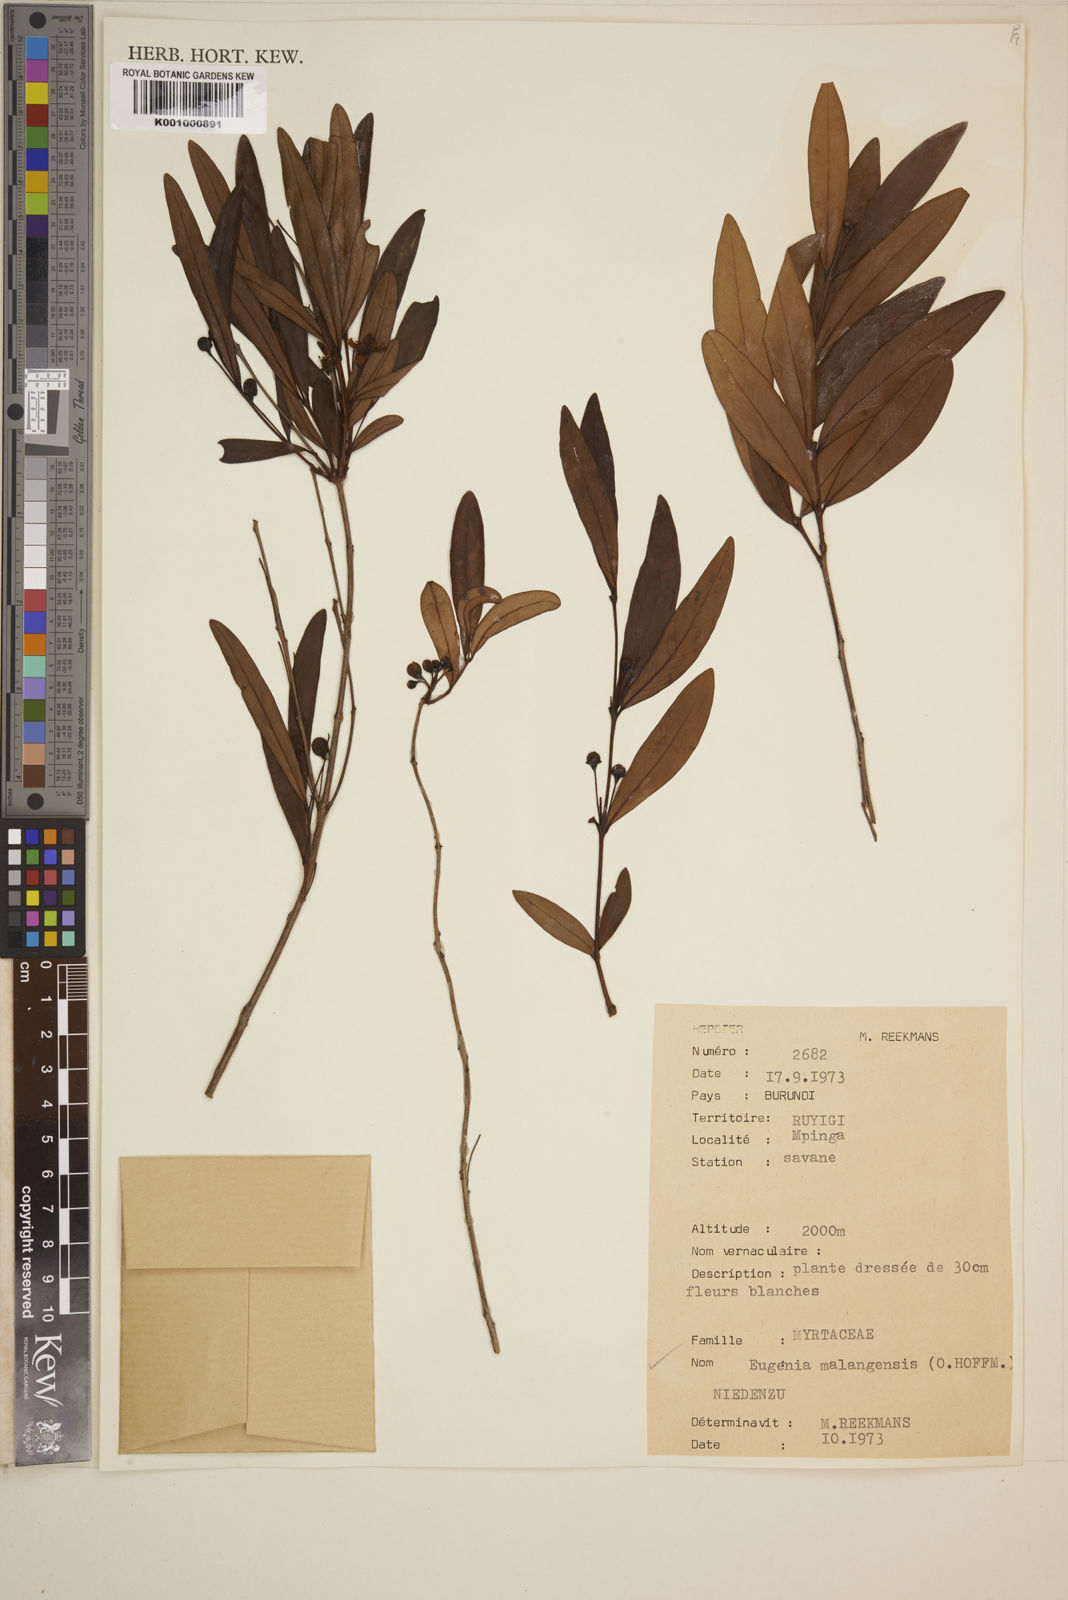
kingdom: Plantae
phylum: Tracheophyta
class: Magnoliopsida
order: Myrtales
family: Myrtaceae
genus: Eugenia
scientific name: Eugenia malangensis
